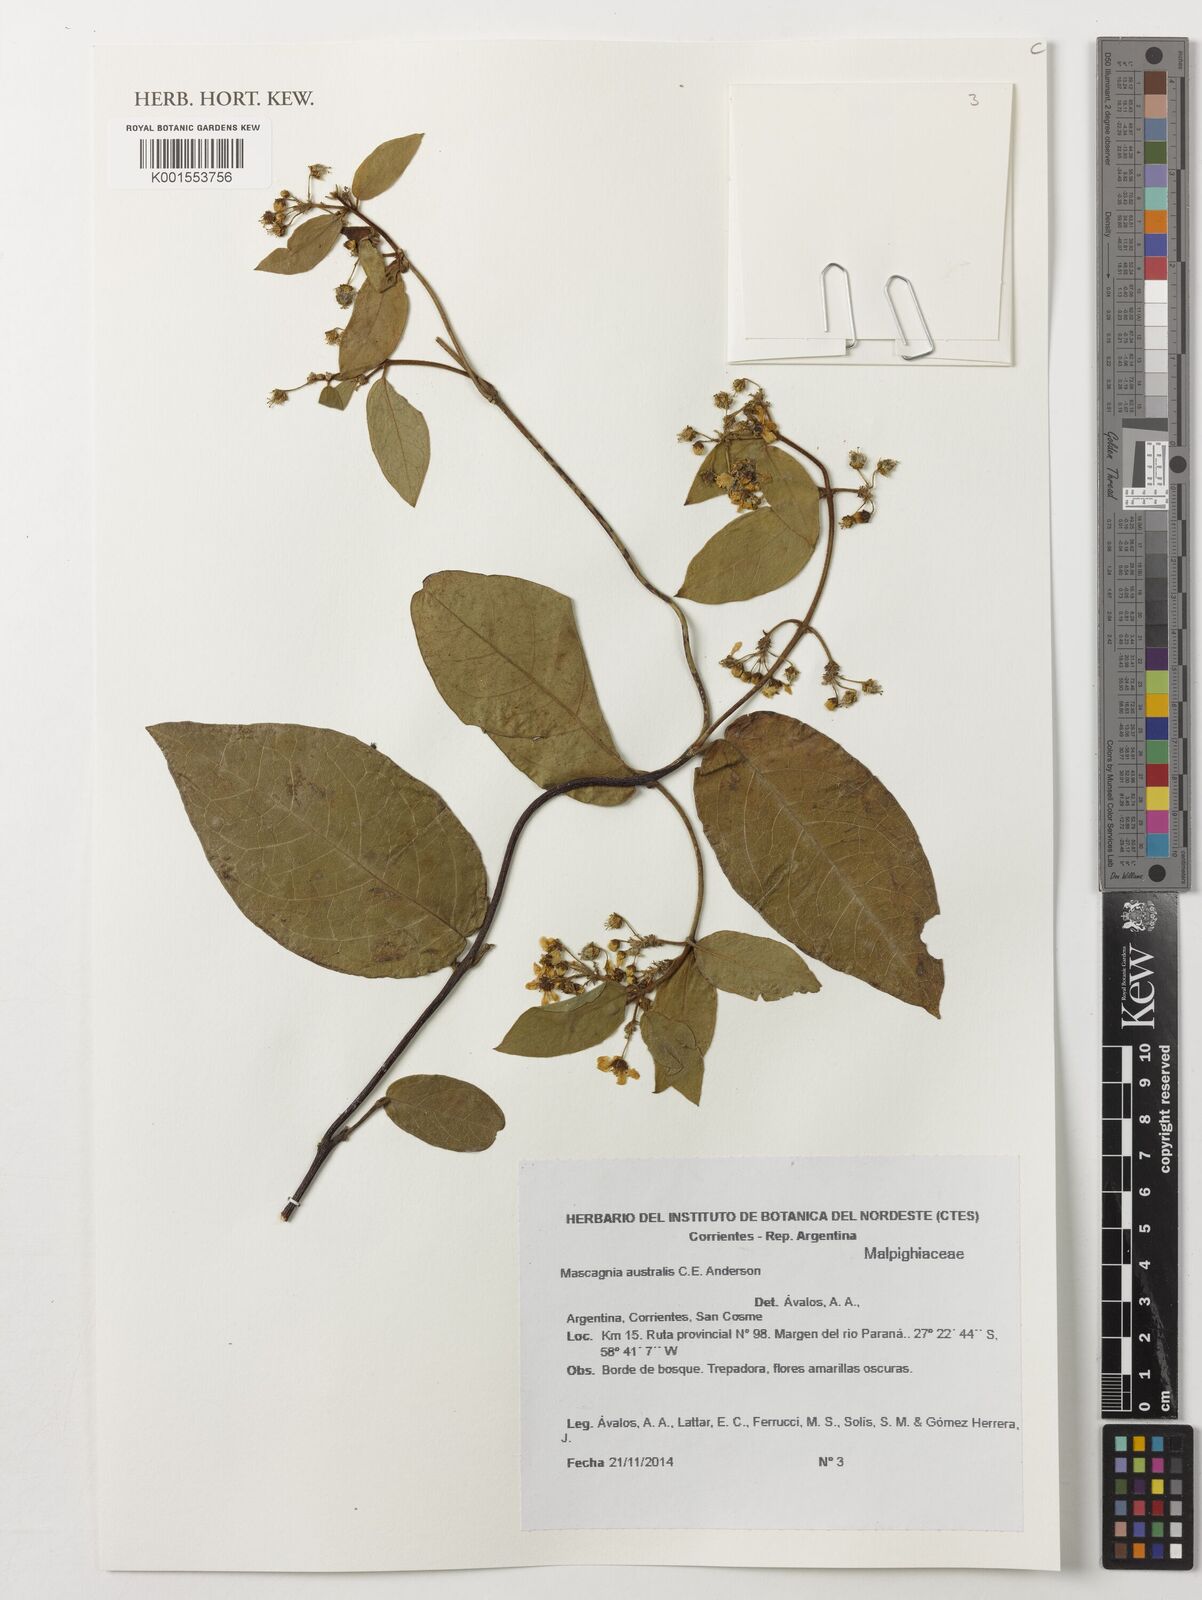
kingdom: Plantae
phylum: Tracheophyta
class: Magnoliopsida
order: Malpighiales
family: Malpighiaceae
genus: Mascagnia
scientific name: Mascagnia australis
